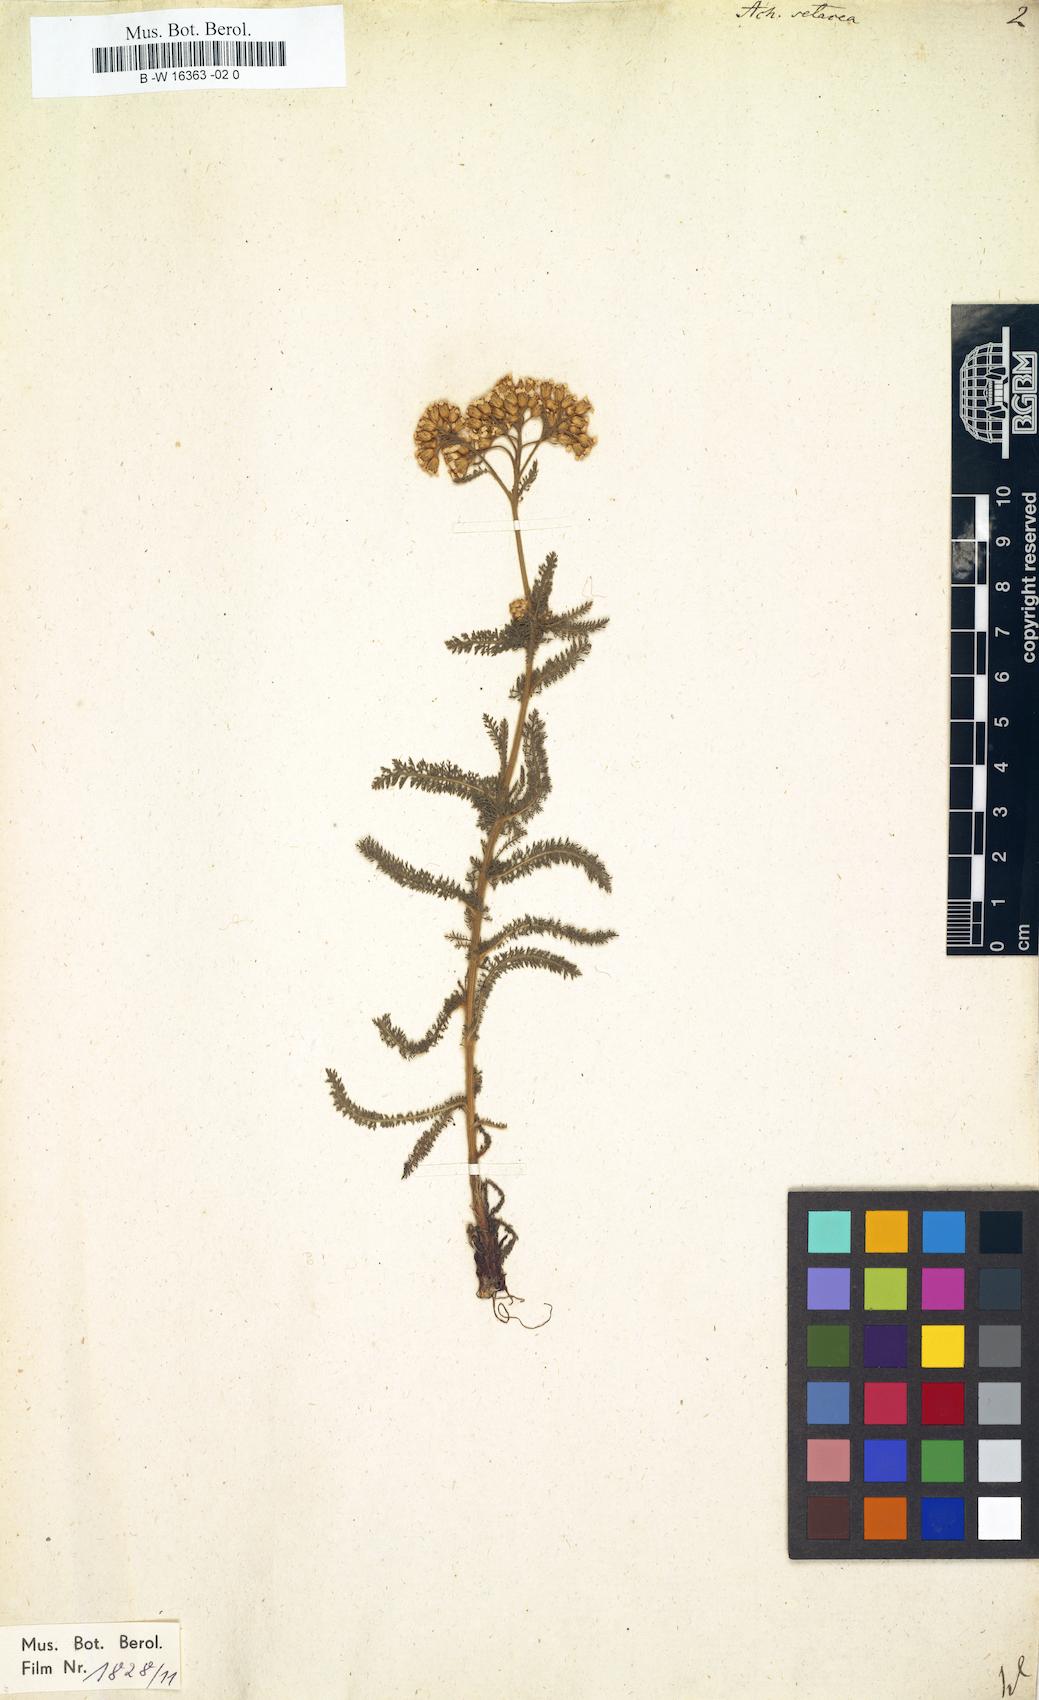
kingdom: Plantae
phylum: Tracheophyta
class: Magnoliopsida
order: Asterales
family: Asteraceae
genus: Achillea
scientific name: Achillea setacea
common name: Bristly yarrow
